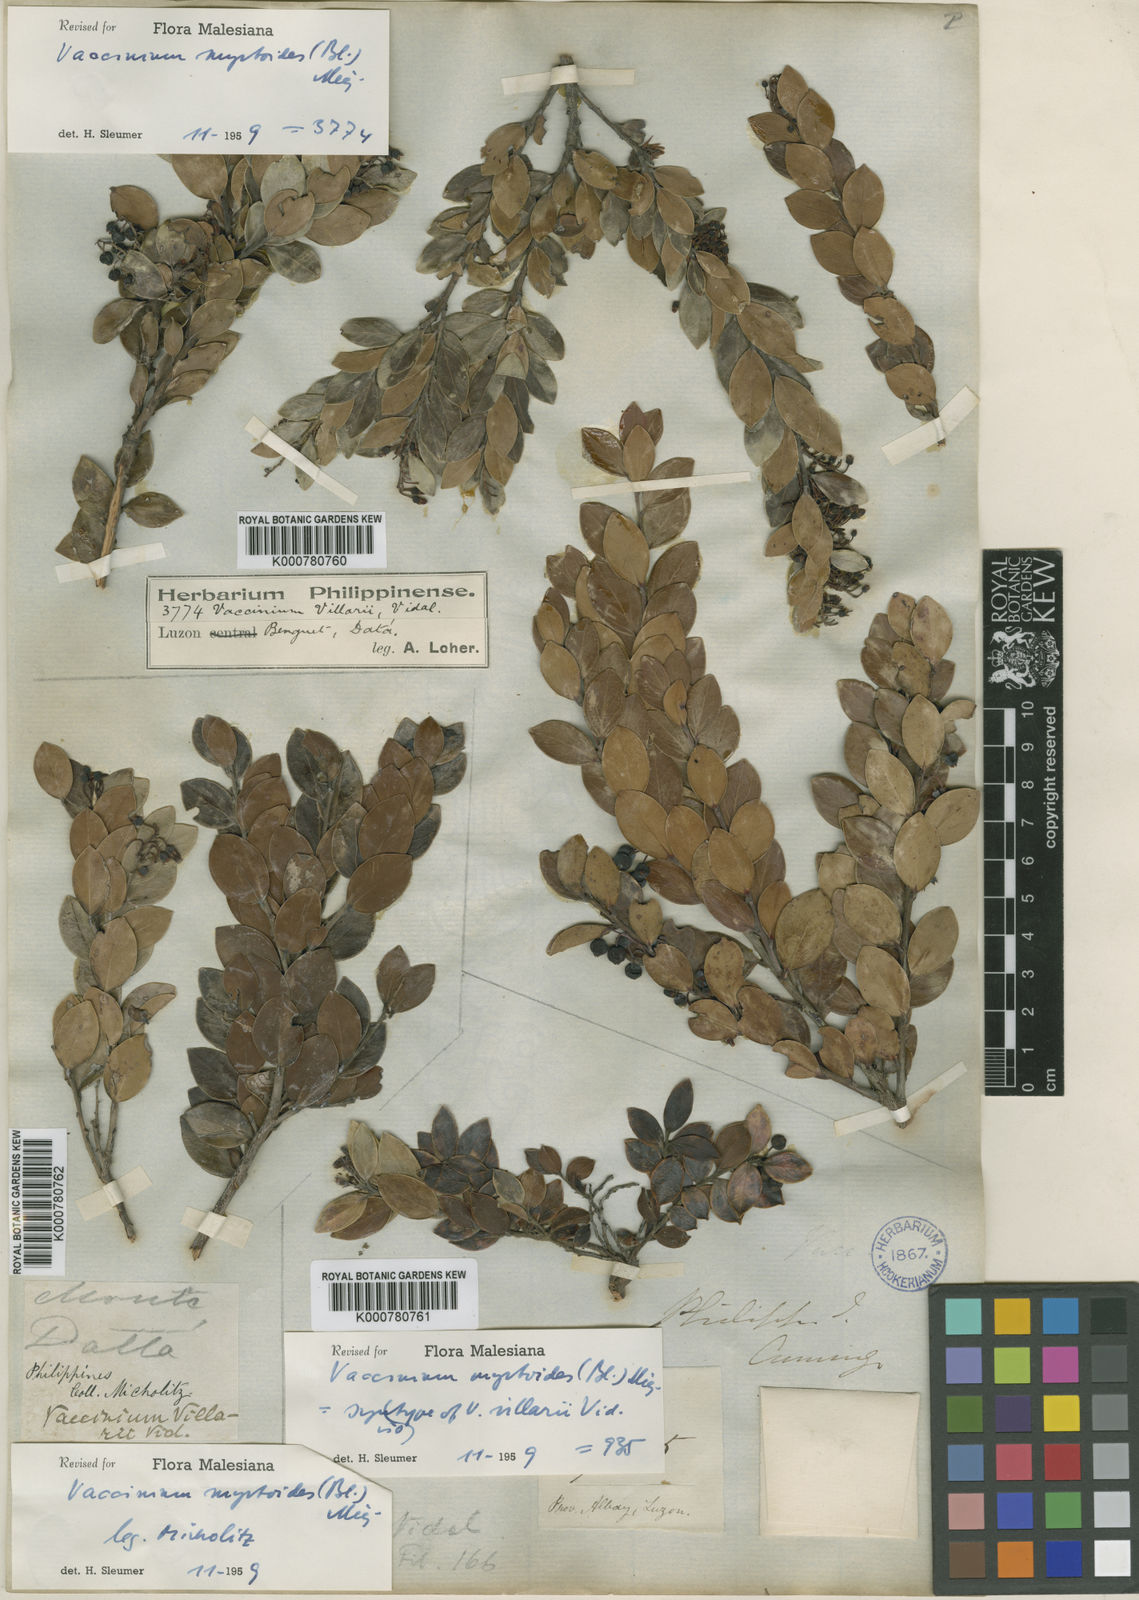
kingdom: Plantae
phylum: Tracheophyta
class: Magnoliopsida
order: Ericales
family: Ericaceae
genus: Vaccinium
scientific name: Vaccinium myrtoides
